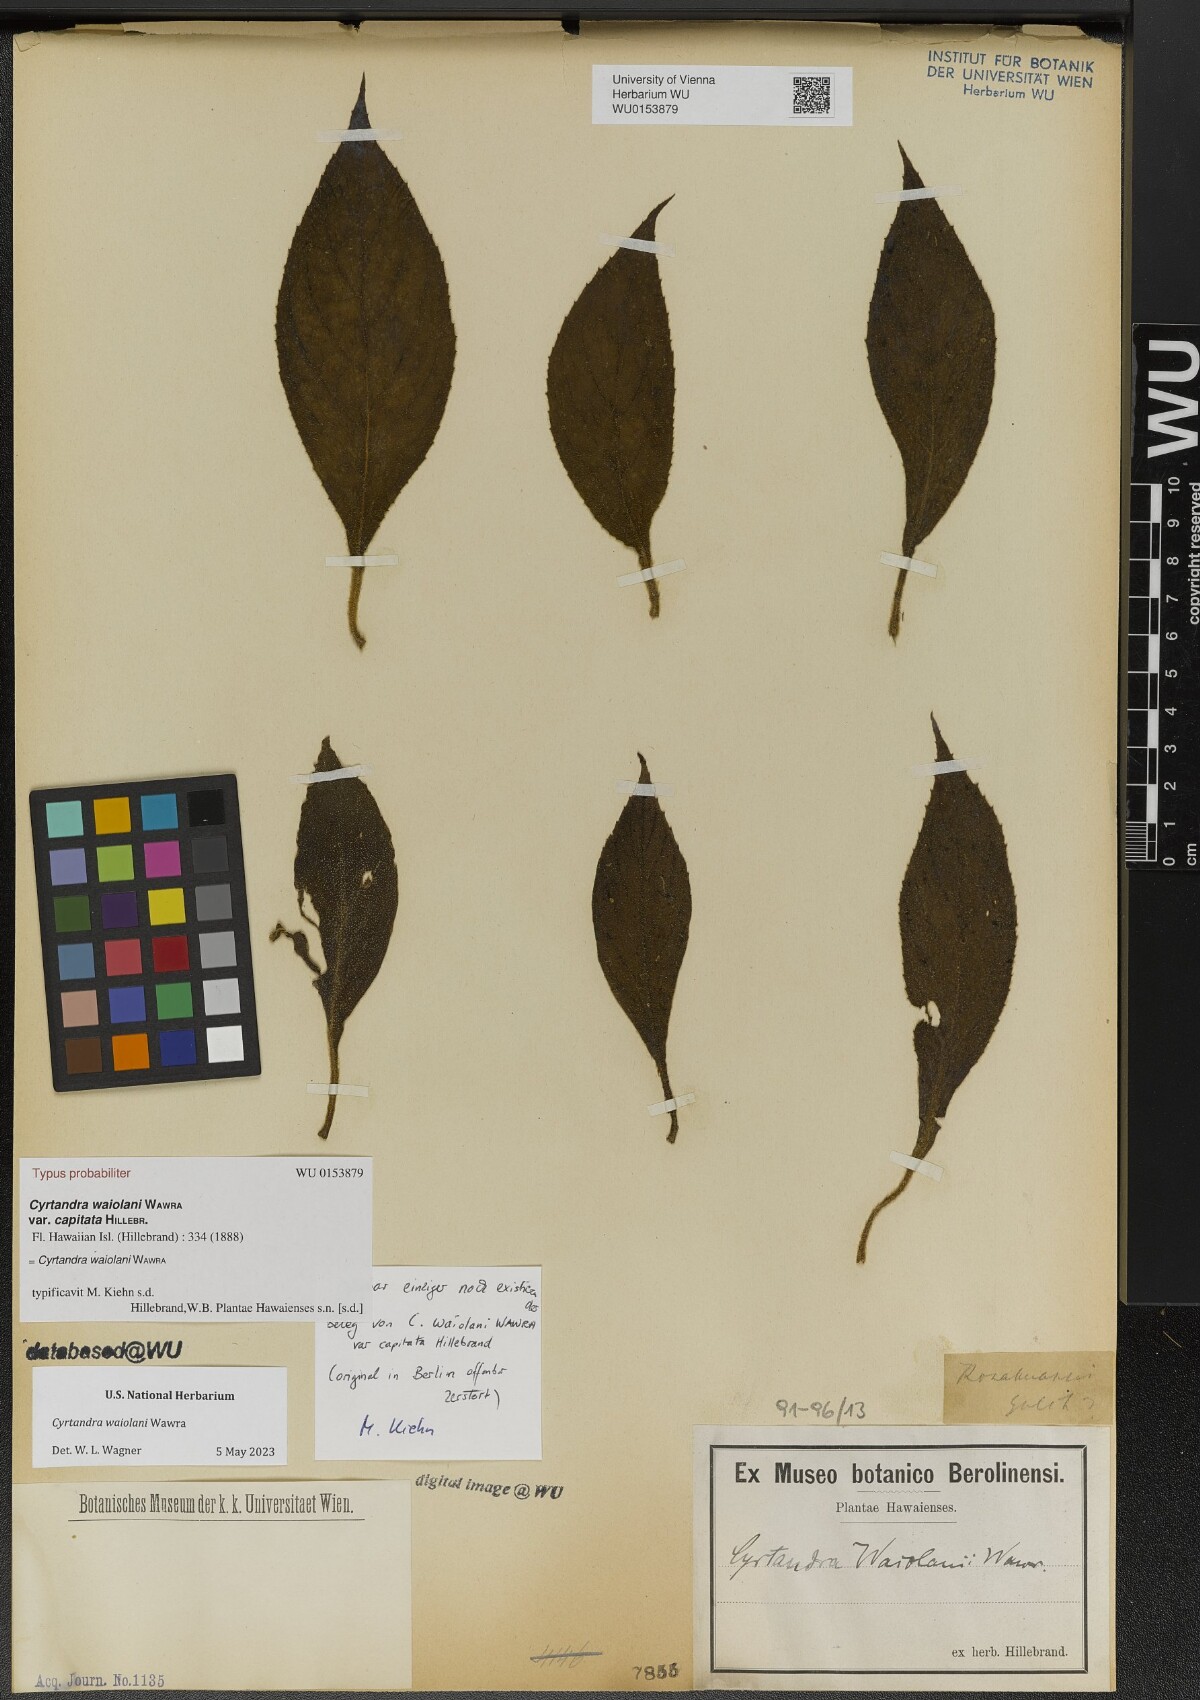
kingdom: Plantae
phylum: Tracheophyta
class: Magnoliopsida
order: Lamiales
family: Gesneriaceae
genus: Cyrtandra
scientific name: Cyrtandra waiolani
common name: Fuzzyflower cyrtandra
